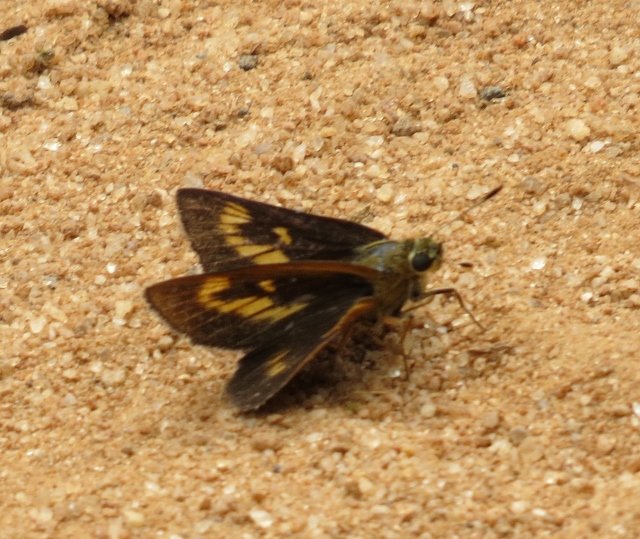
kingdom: Animalia
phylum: Arthropoda
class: Insecta
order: Lepidoptera
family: Hesperiidae
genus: Problema
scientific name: Problema byssus
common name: Byssus Skipper
